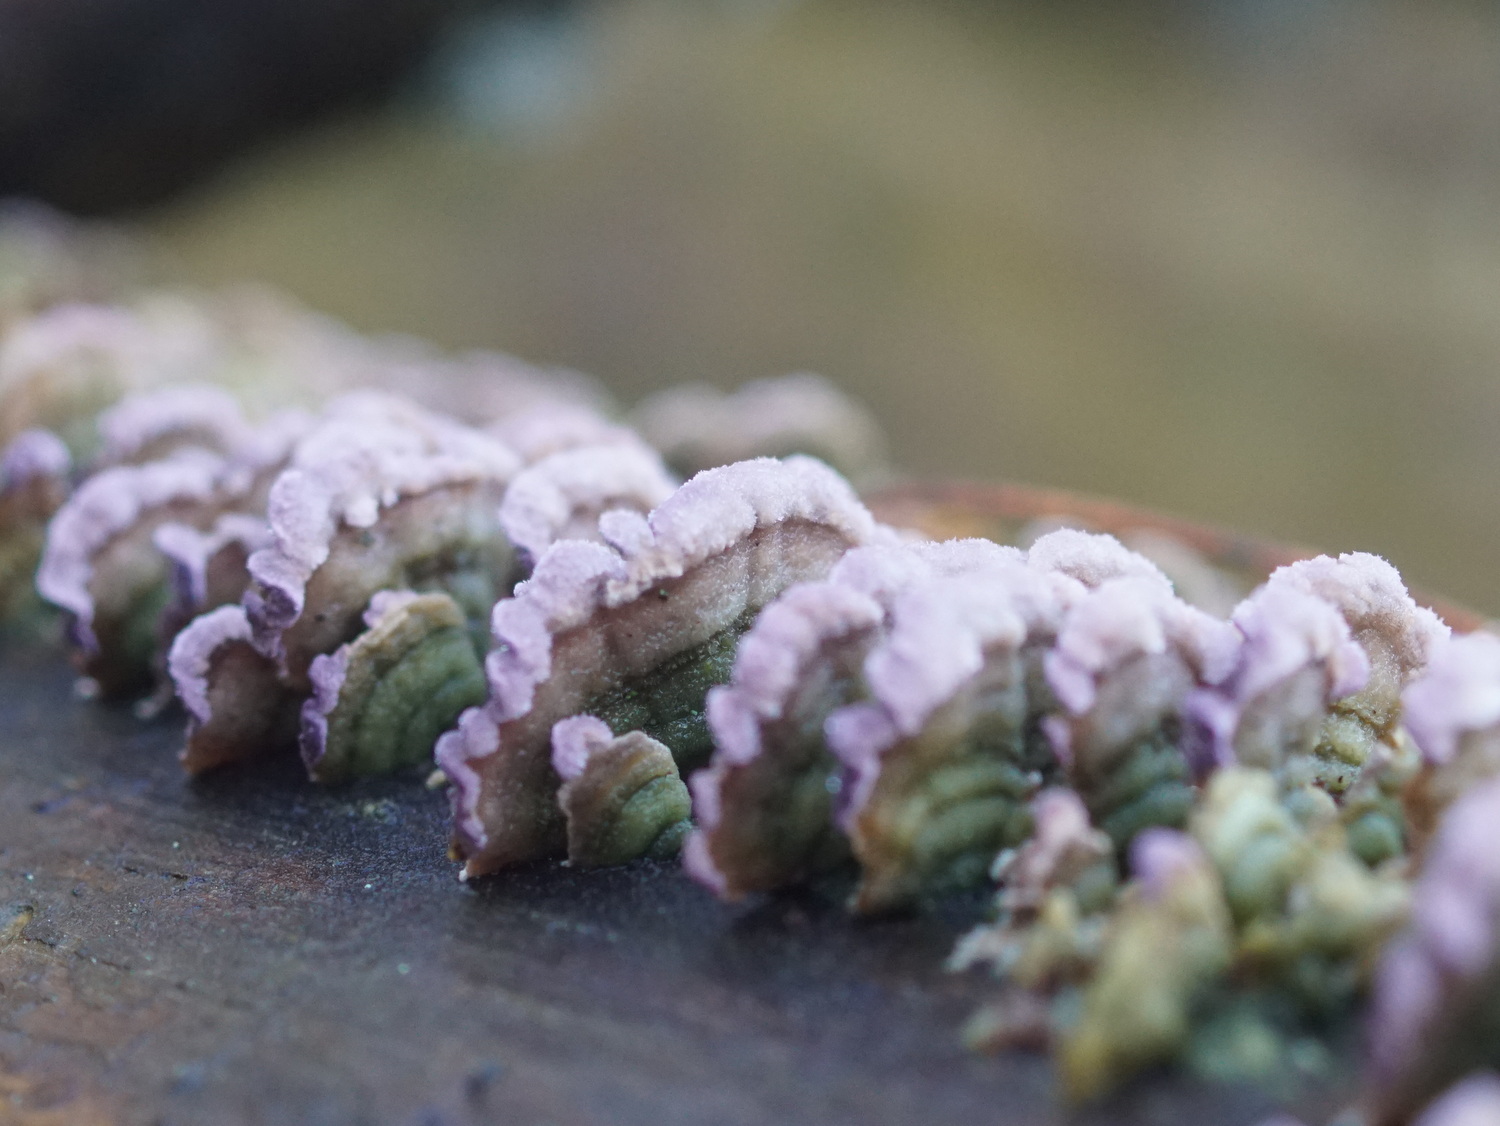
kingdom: Fungi
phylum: Basidiomycota
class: Agaricomycetes
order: Hymenochaetales
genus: Trichaptum
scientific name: Trichaptum fuscoviolaceum
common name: tandet violporesvamp
